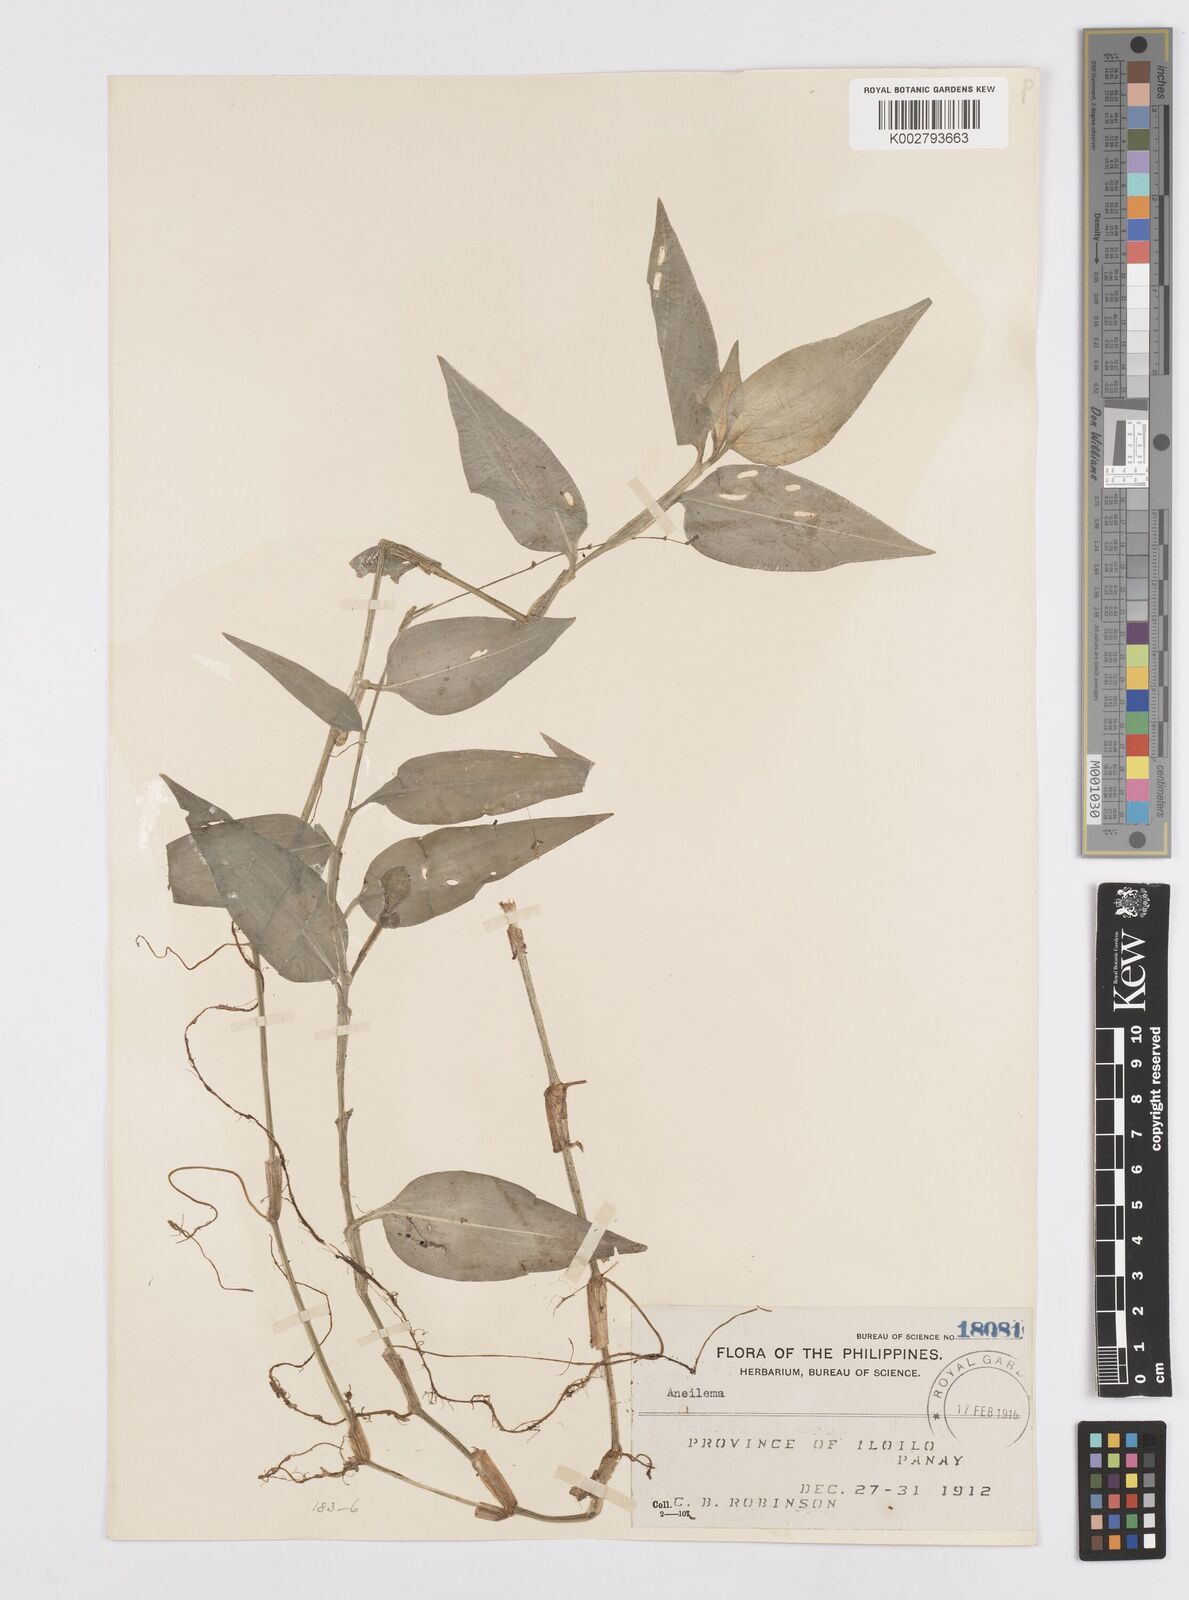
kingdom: Plantae
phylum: Tracheophyta
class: Liliopsida
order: Commelinales
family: Commelinaceae
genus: Murdannia
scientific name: Murdannia
